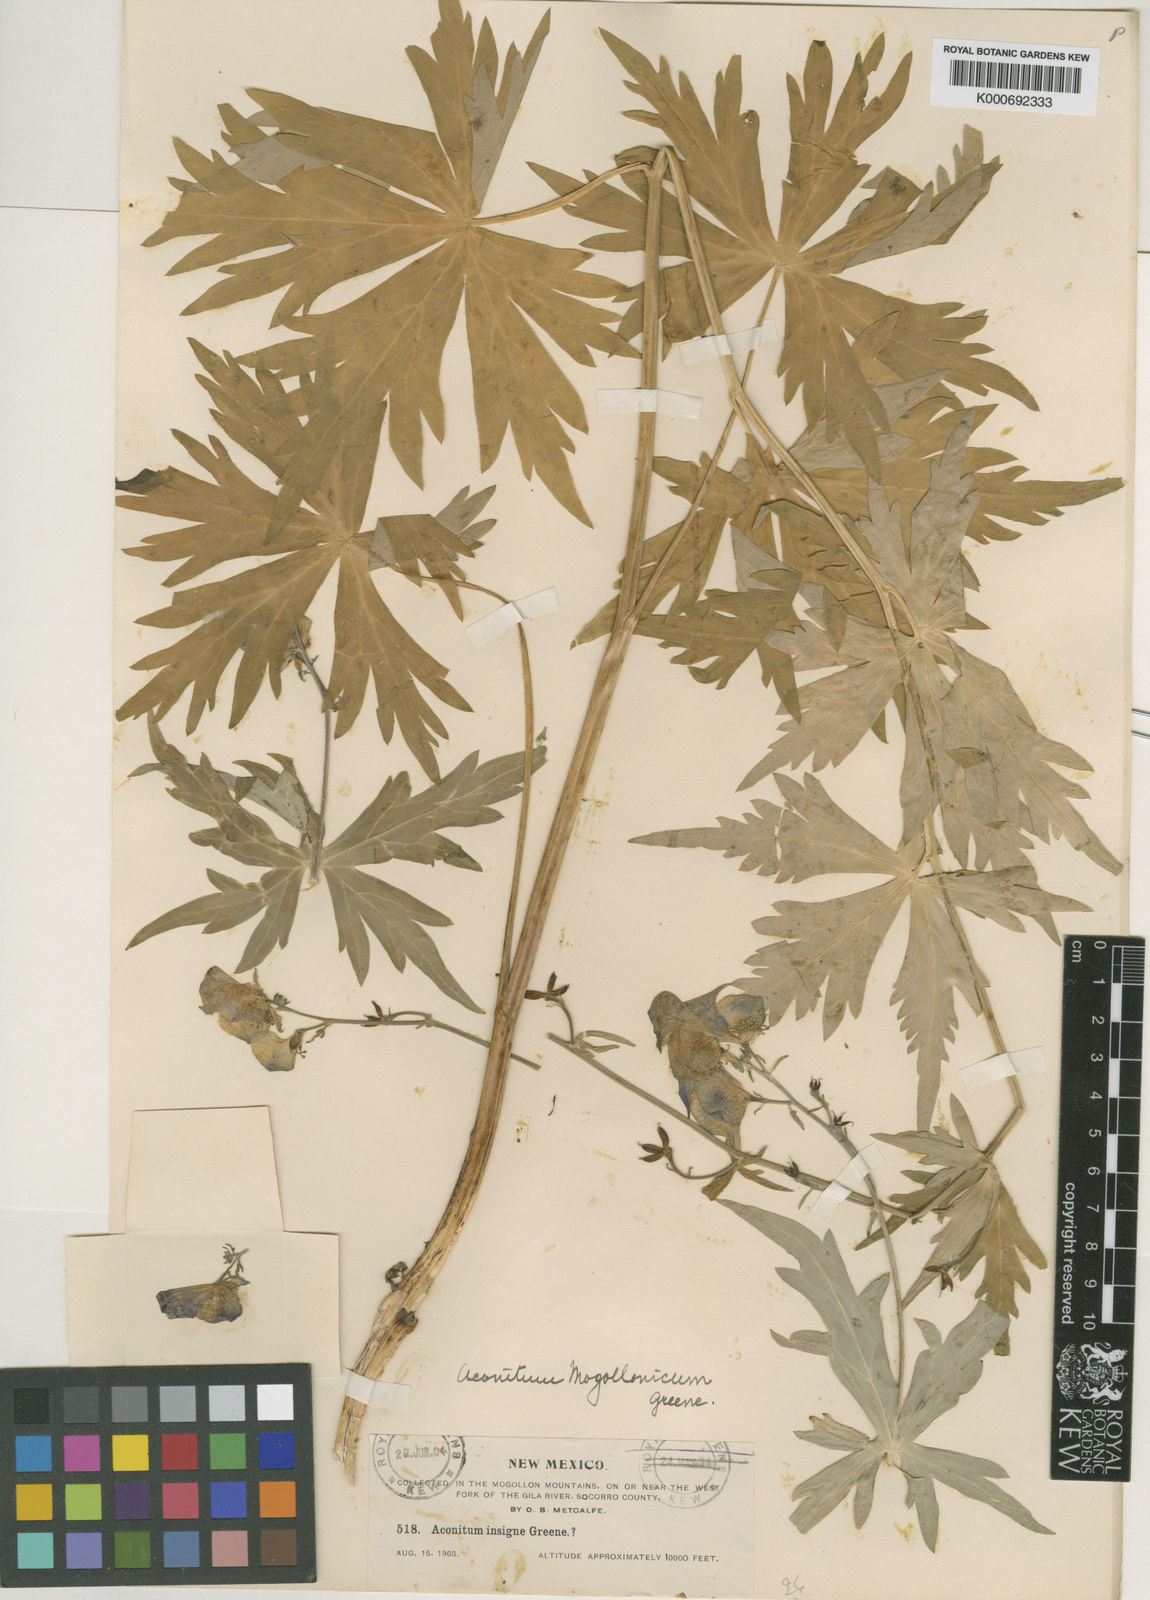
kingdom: Plantae
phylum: Tracheophyta
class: Magnoliopsida
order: Ranunculales
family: Ranunculaceae
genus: Aconitum
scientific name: Aconitum columbianum
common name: Columbia aconite
